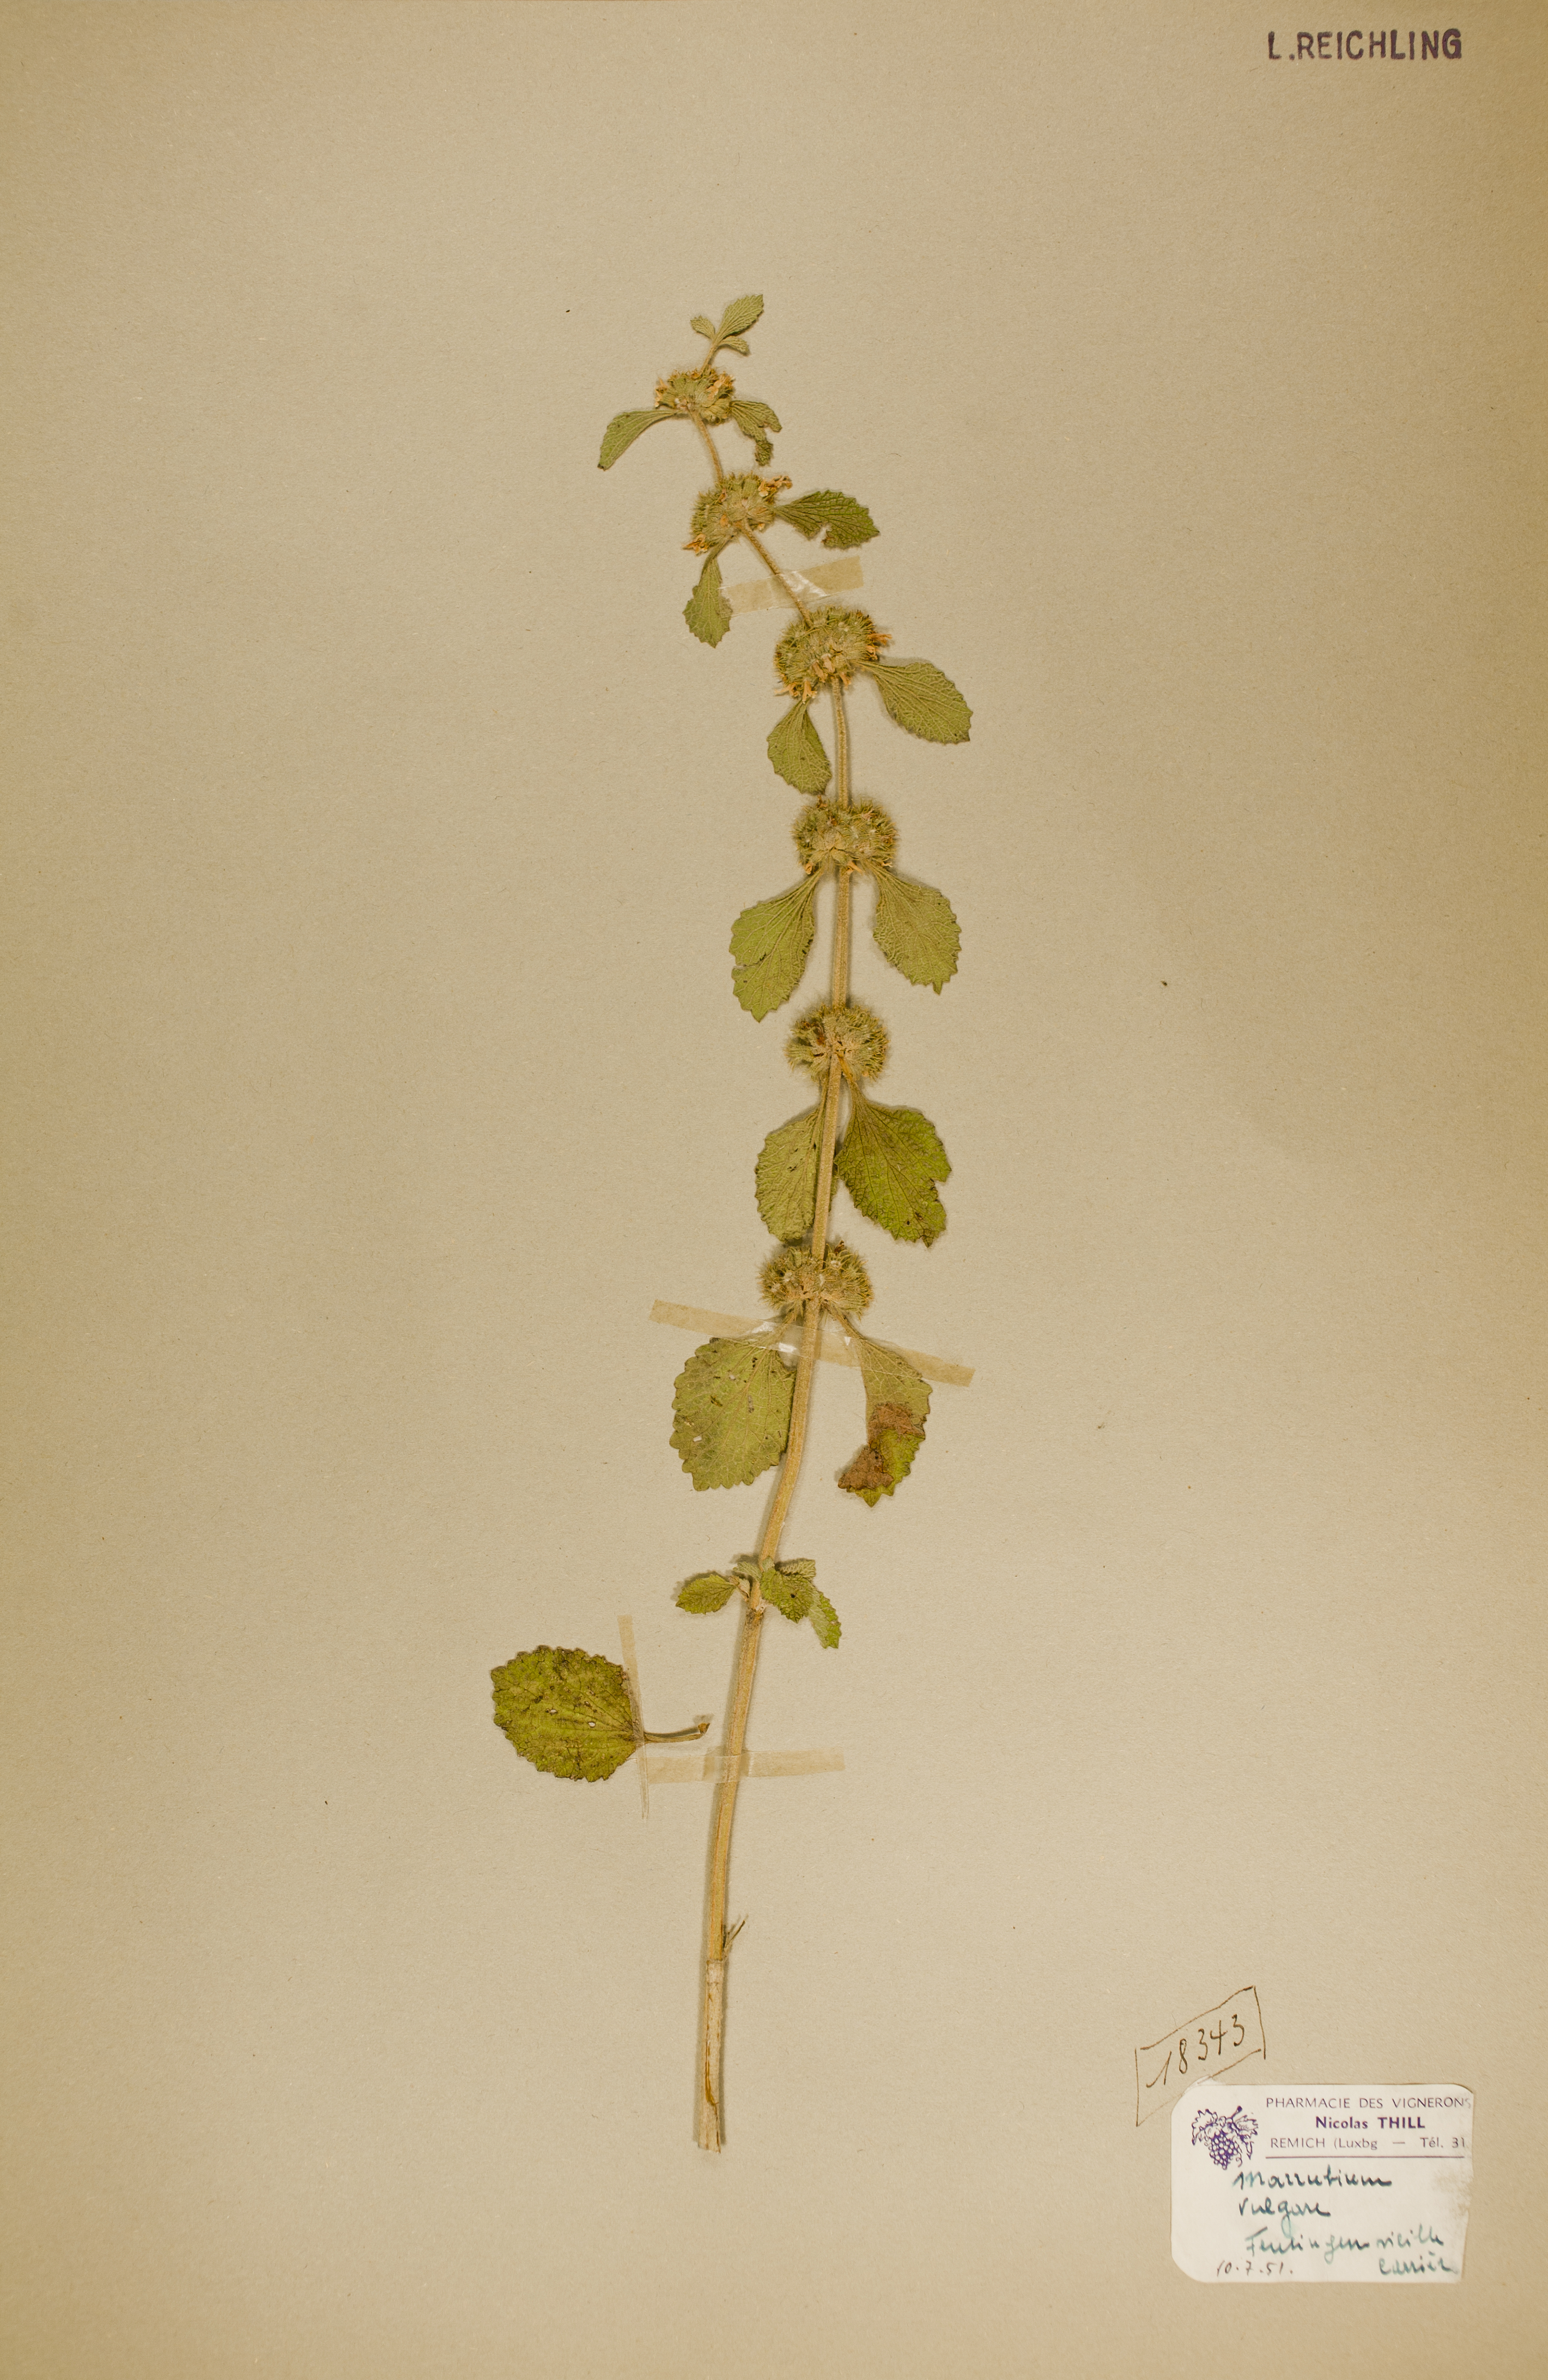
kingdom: Plantae
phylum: Tracheophyta
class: Magnoliopsida
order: Lamiales
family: Lamiaceae
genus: Marrubium
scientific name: Marrubium vulgare
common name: Horehound
